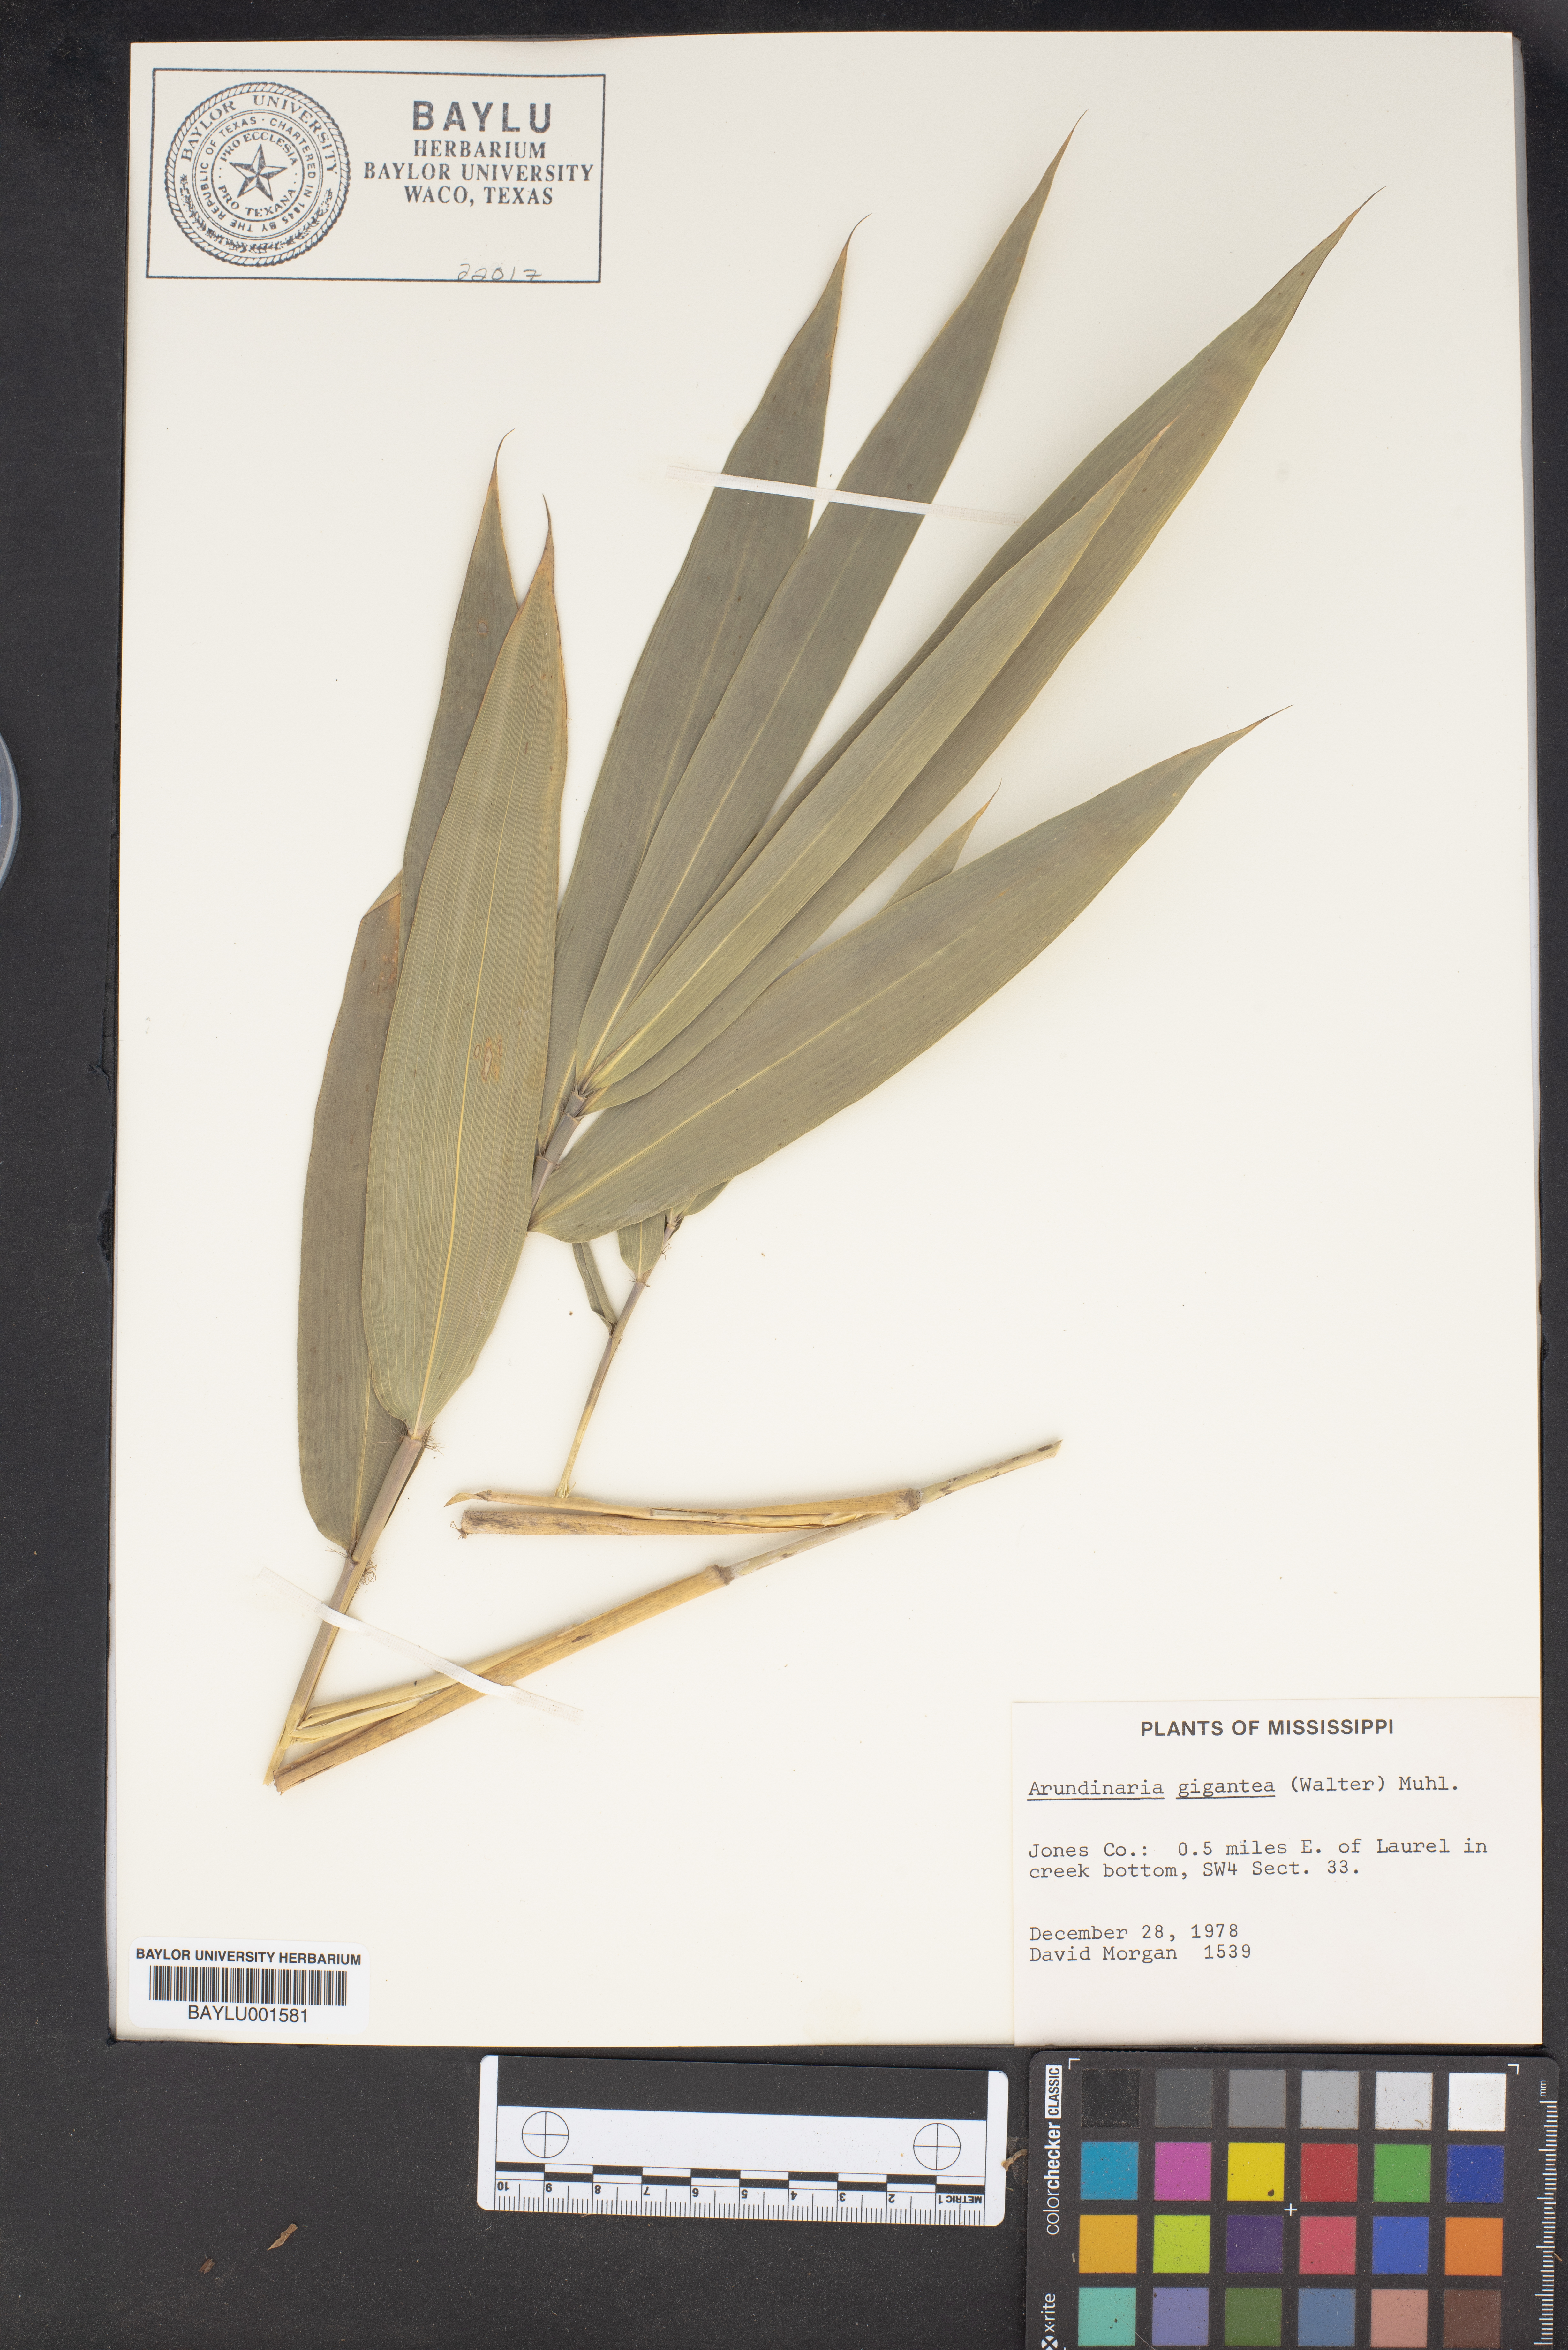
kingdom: Plantae
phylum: Tracheophyta
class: Liliopsida
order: Poales
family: Poaceae
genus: Arundinaria
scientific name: Arundinaria gigantea
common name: Giant cane
